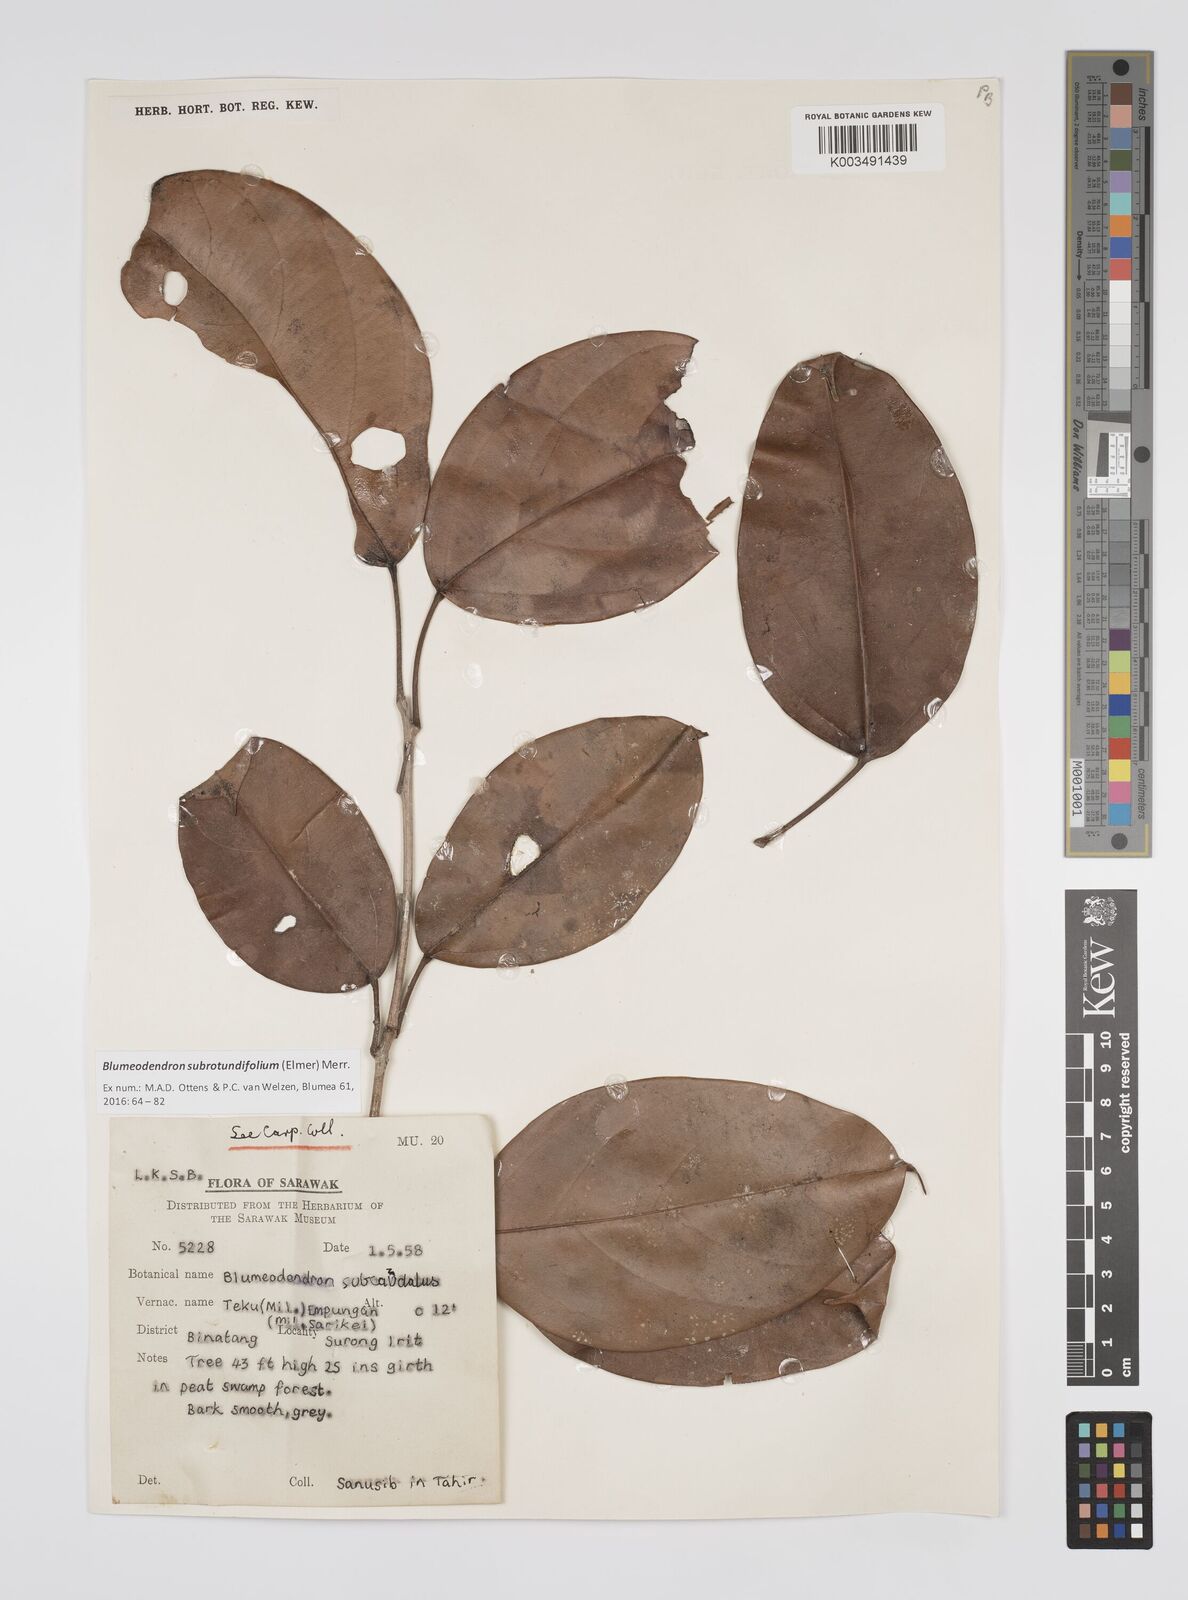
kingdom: Plantae
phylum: Tracheophyta
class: Magnoliopsida
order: Malpighiales
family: Euphorbiaceae
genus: Blumeodendron
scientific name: Blumeodendron subrotundifolium
